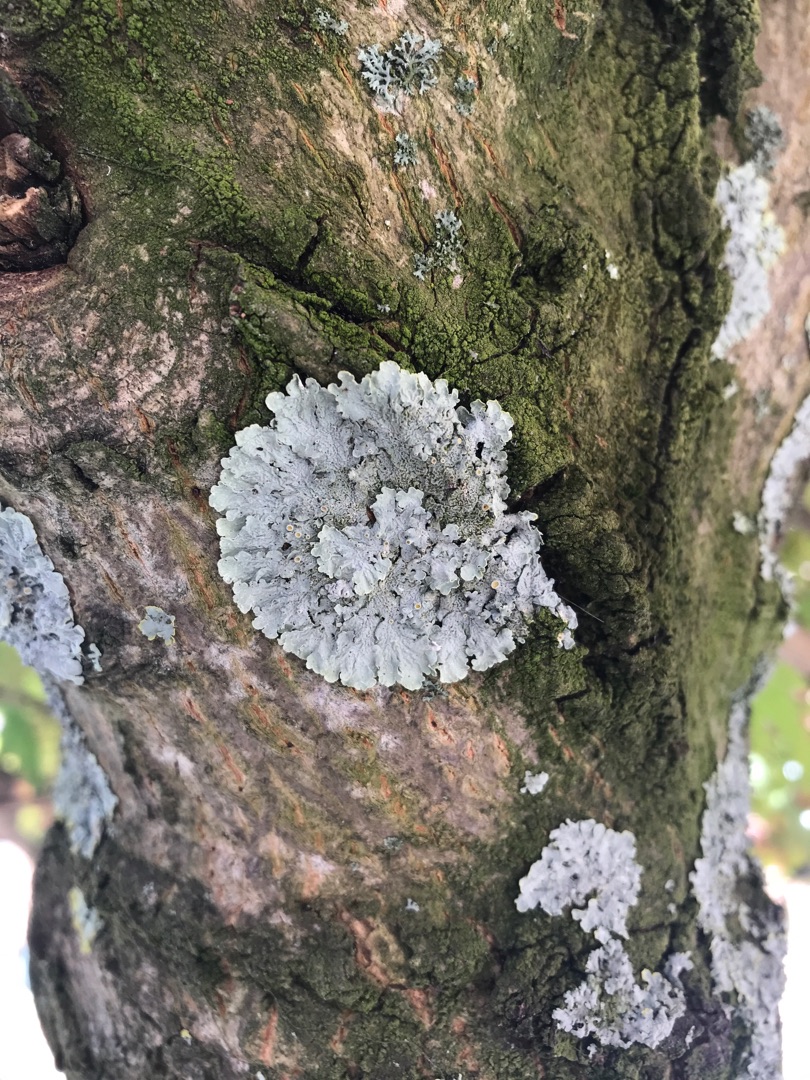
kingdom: Fungi
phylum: Ascomycota
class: Lecanoromycetes
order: Teloschistales
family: Teloschistaceae
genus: Xanthoria
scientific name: Xanthoria parietina
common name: Almindelig væggelav
